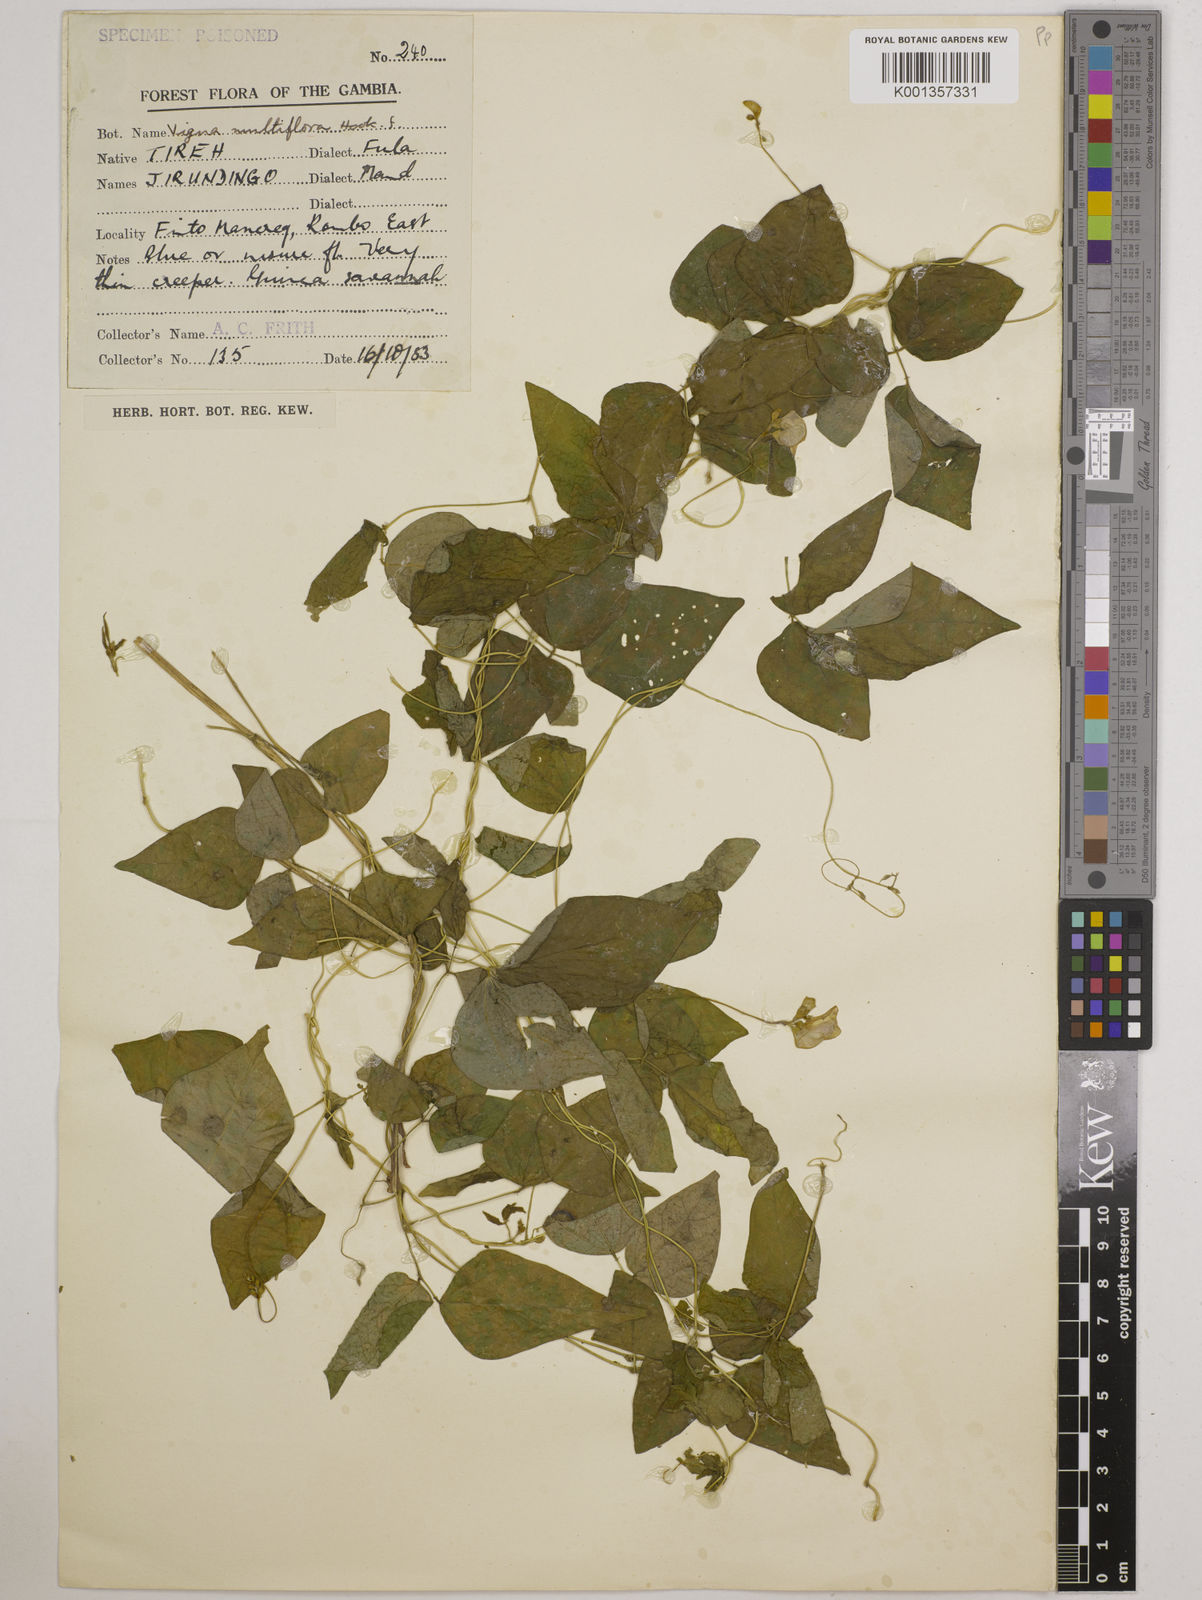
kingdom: Plantae
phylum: Tracheophyta
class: Magnoliopsida
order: Fabales
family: Fabaceae
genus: Vigna
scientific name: Vigna gracilis
